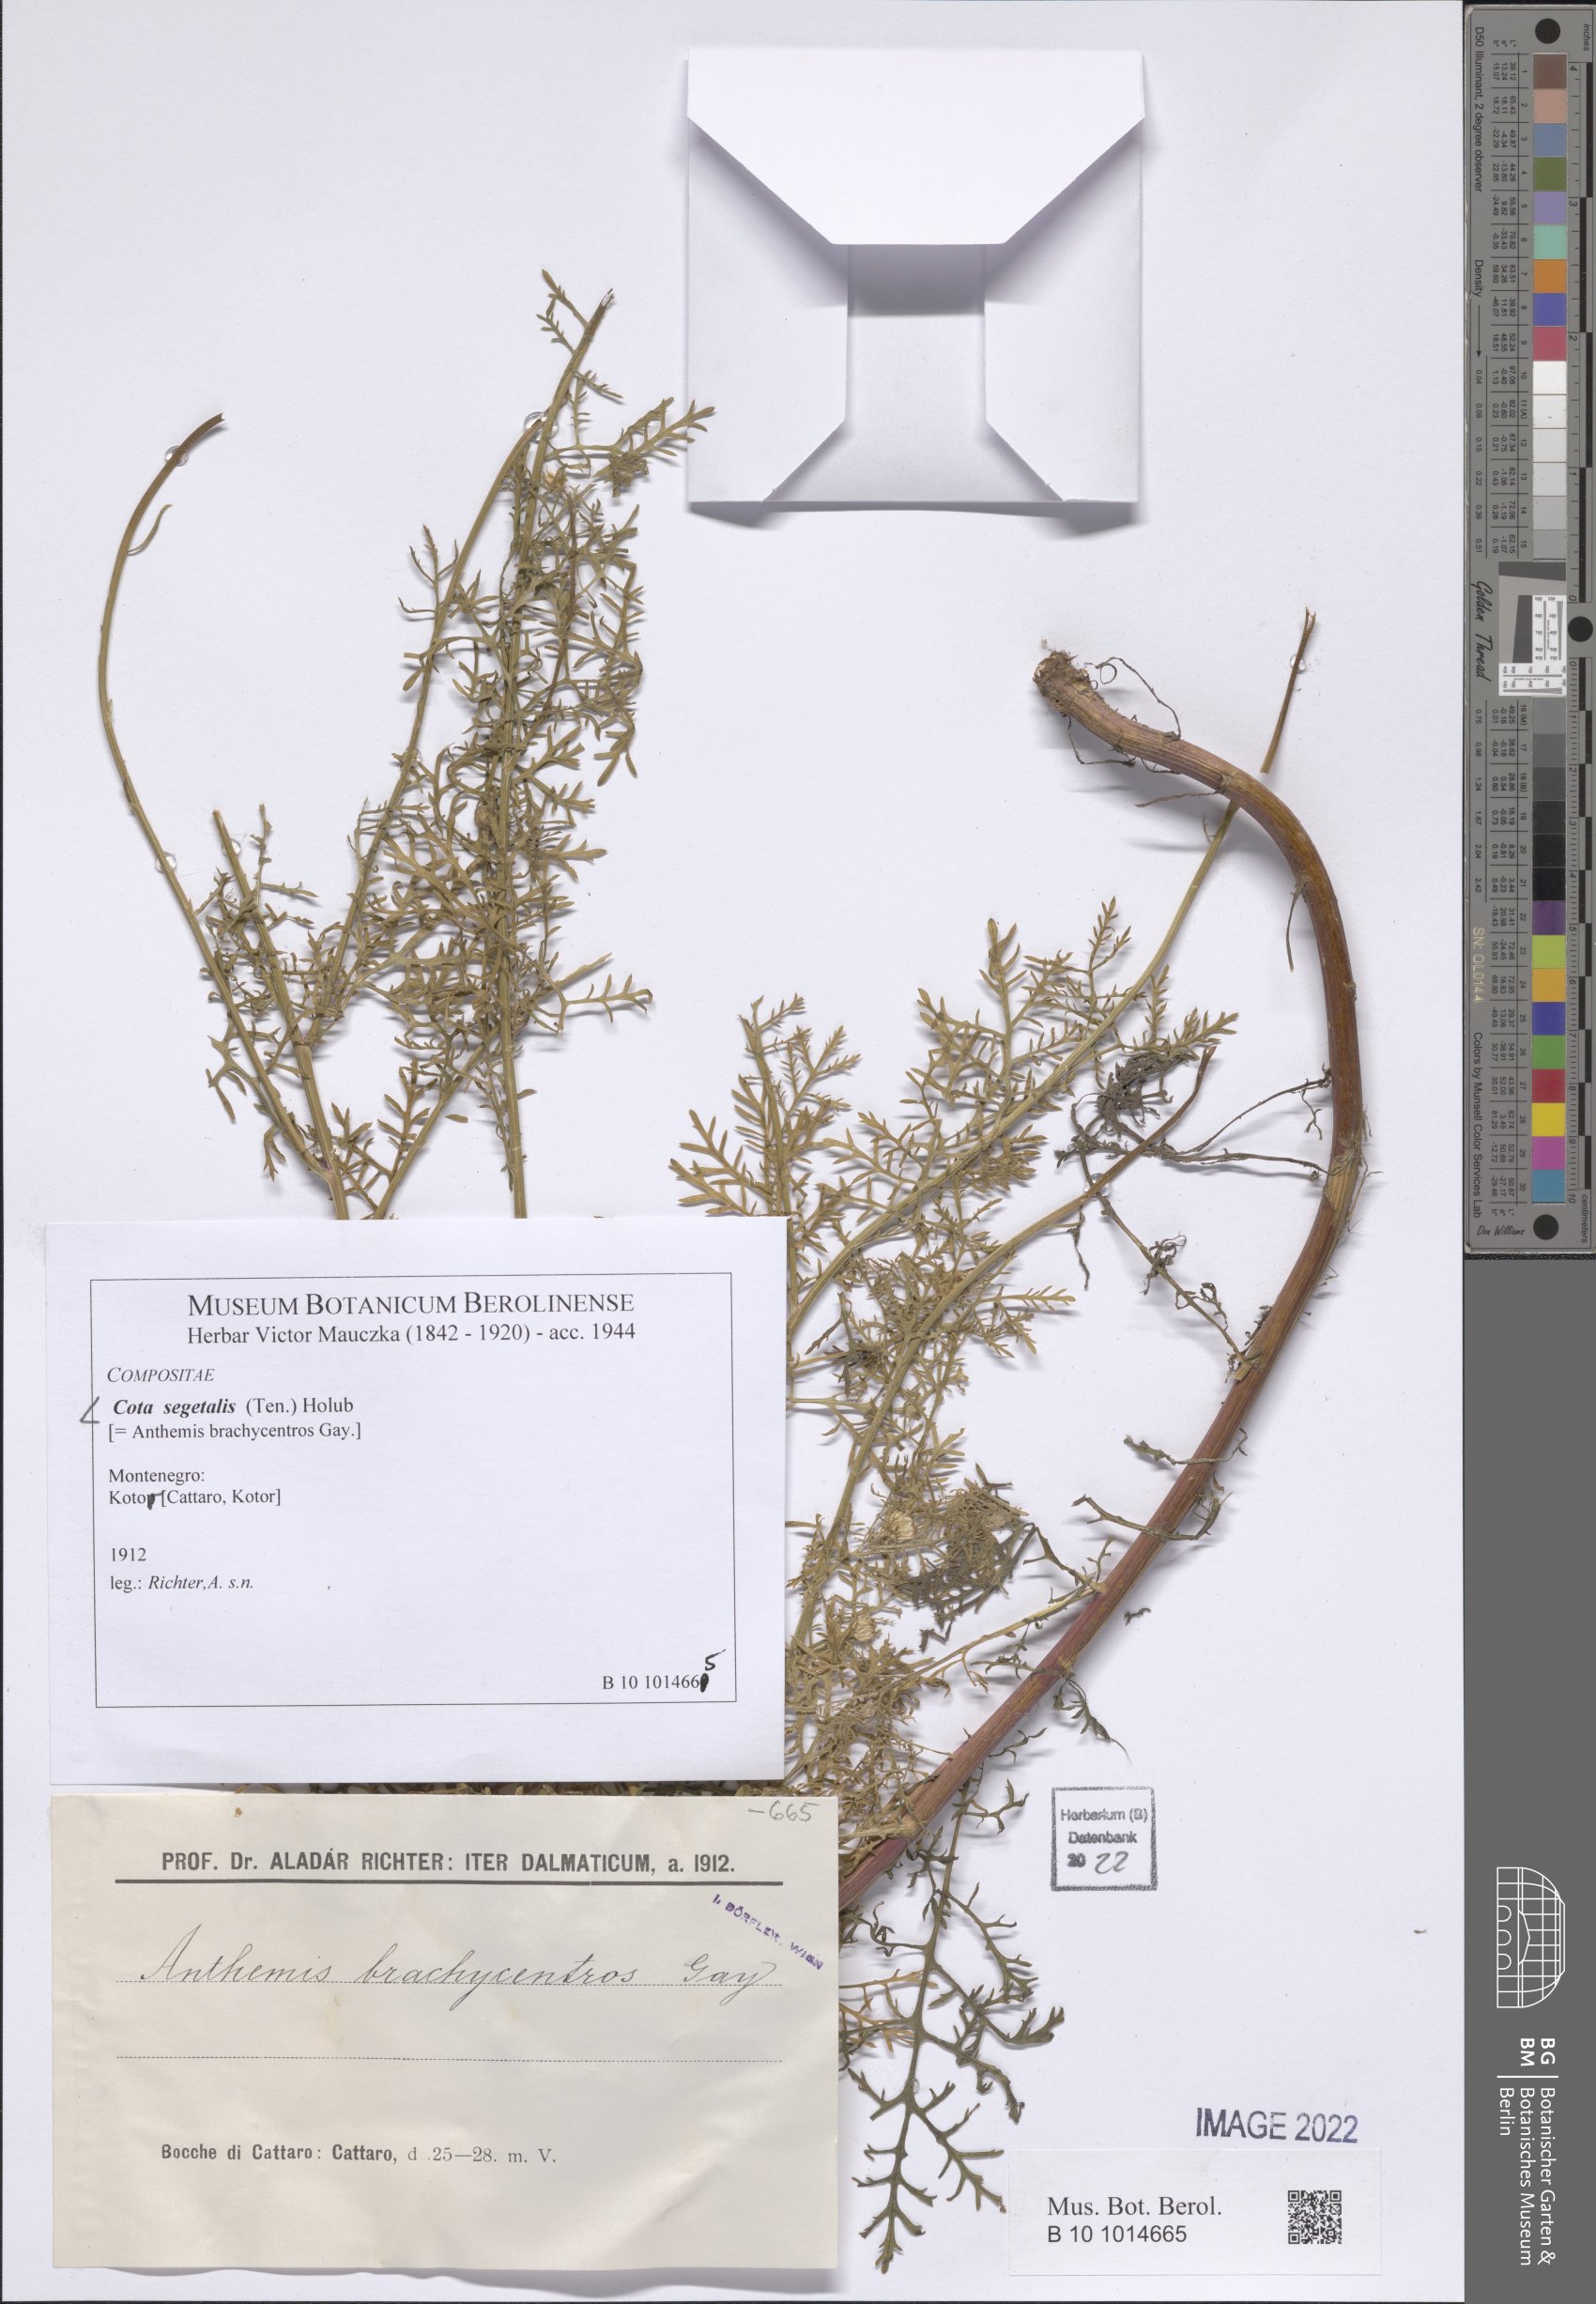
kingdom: Plantae
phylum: Tracheophyta
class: Magnoliopsida
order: Asterales
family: Asteraceae
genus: Cota
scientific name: Cota segetalis
